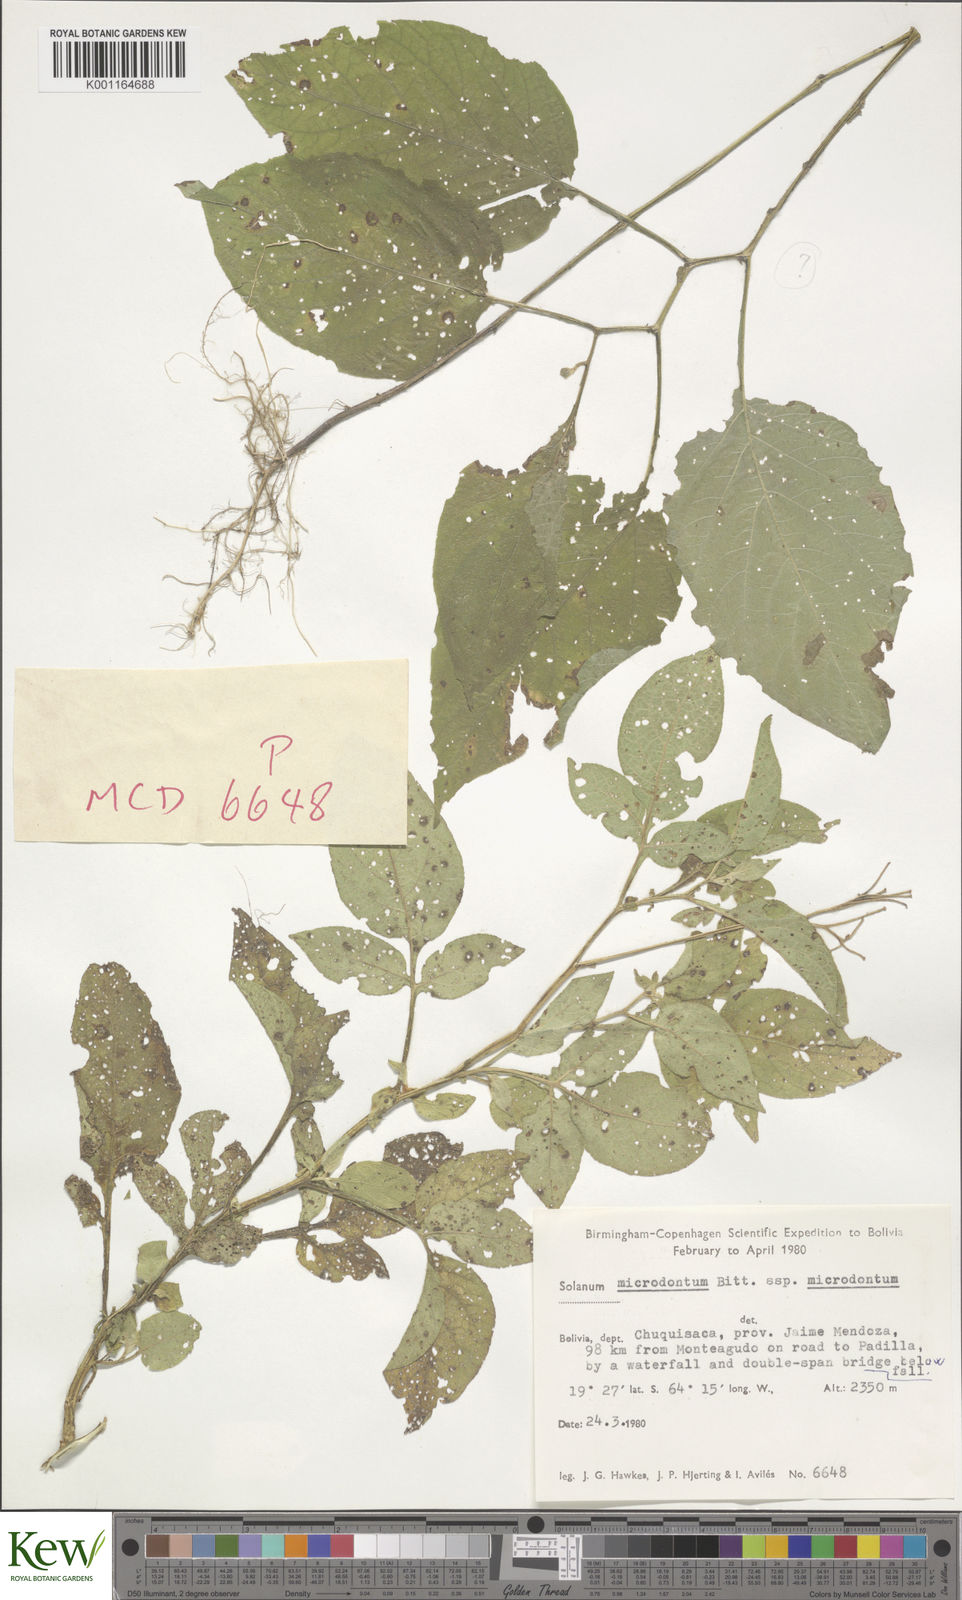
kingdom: Plantae
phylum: Tracheophyta
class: Magnoliopsida
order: Solanales
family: Solanaceae
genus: Solanum
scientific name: Solanum microdontum
